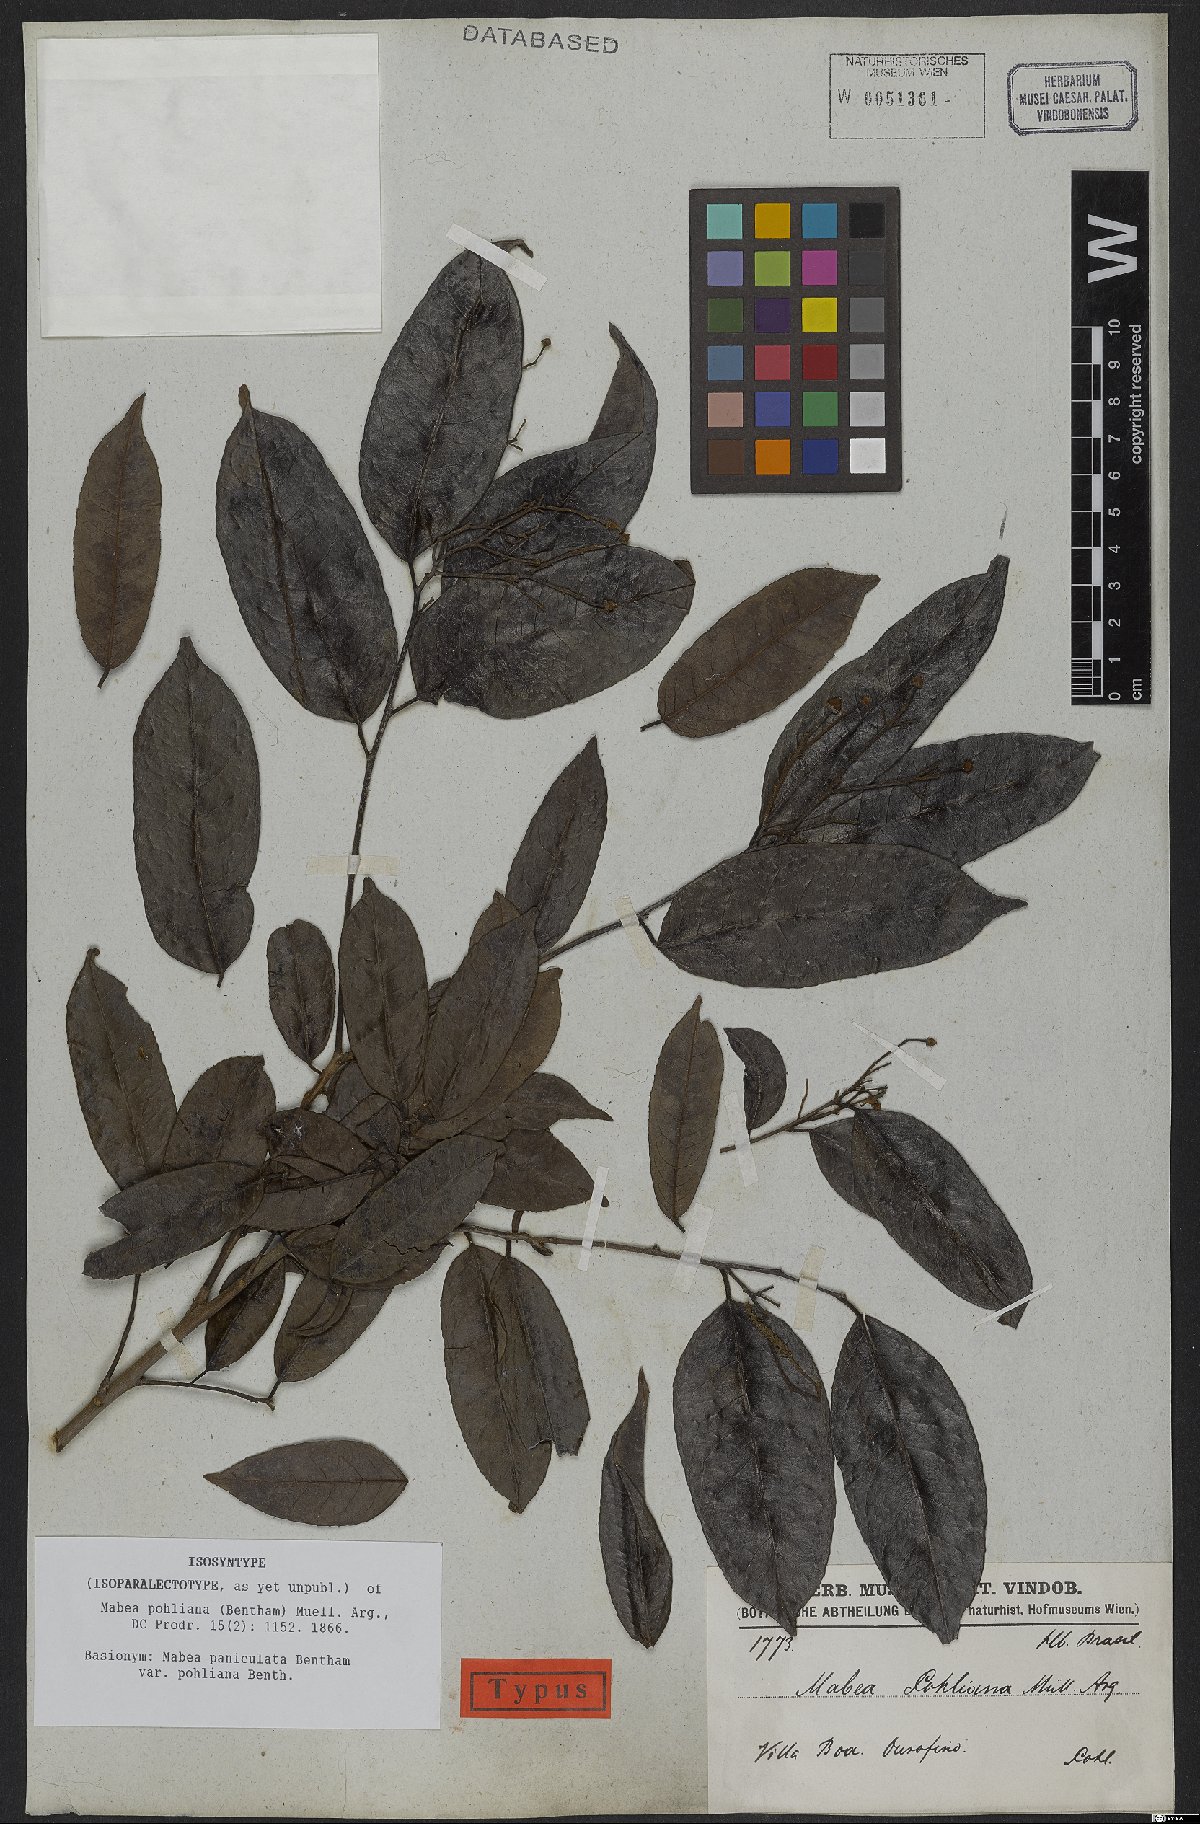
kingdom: Plantae
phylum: Tracheophyta
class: Magnoliopsida
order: Malpighiales
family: Euphorbiaceae
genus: Mabea
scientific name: Mabea pohliana
